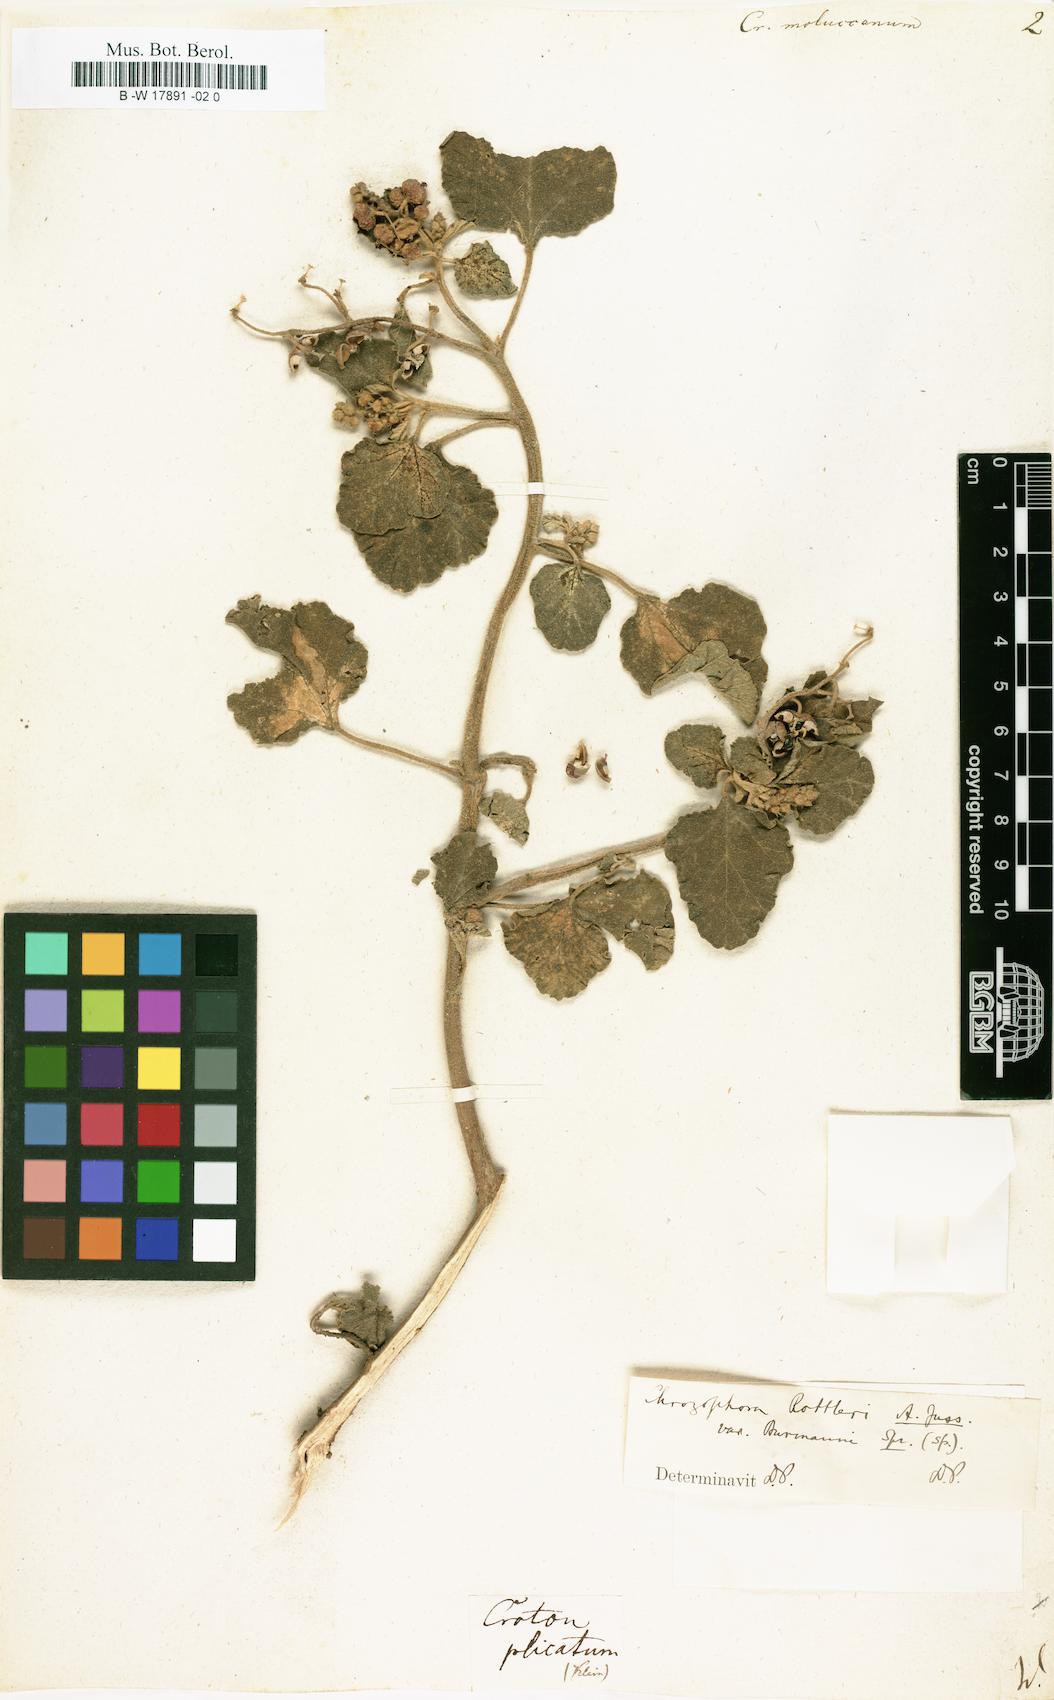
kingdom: Plantae
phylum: Tracheophyta
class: Magnoliopsida
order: Malpighiales
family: Euphorbiaceae
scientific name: Euphorbiaceae
